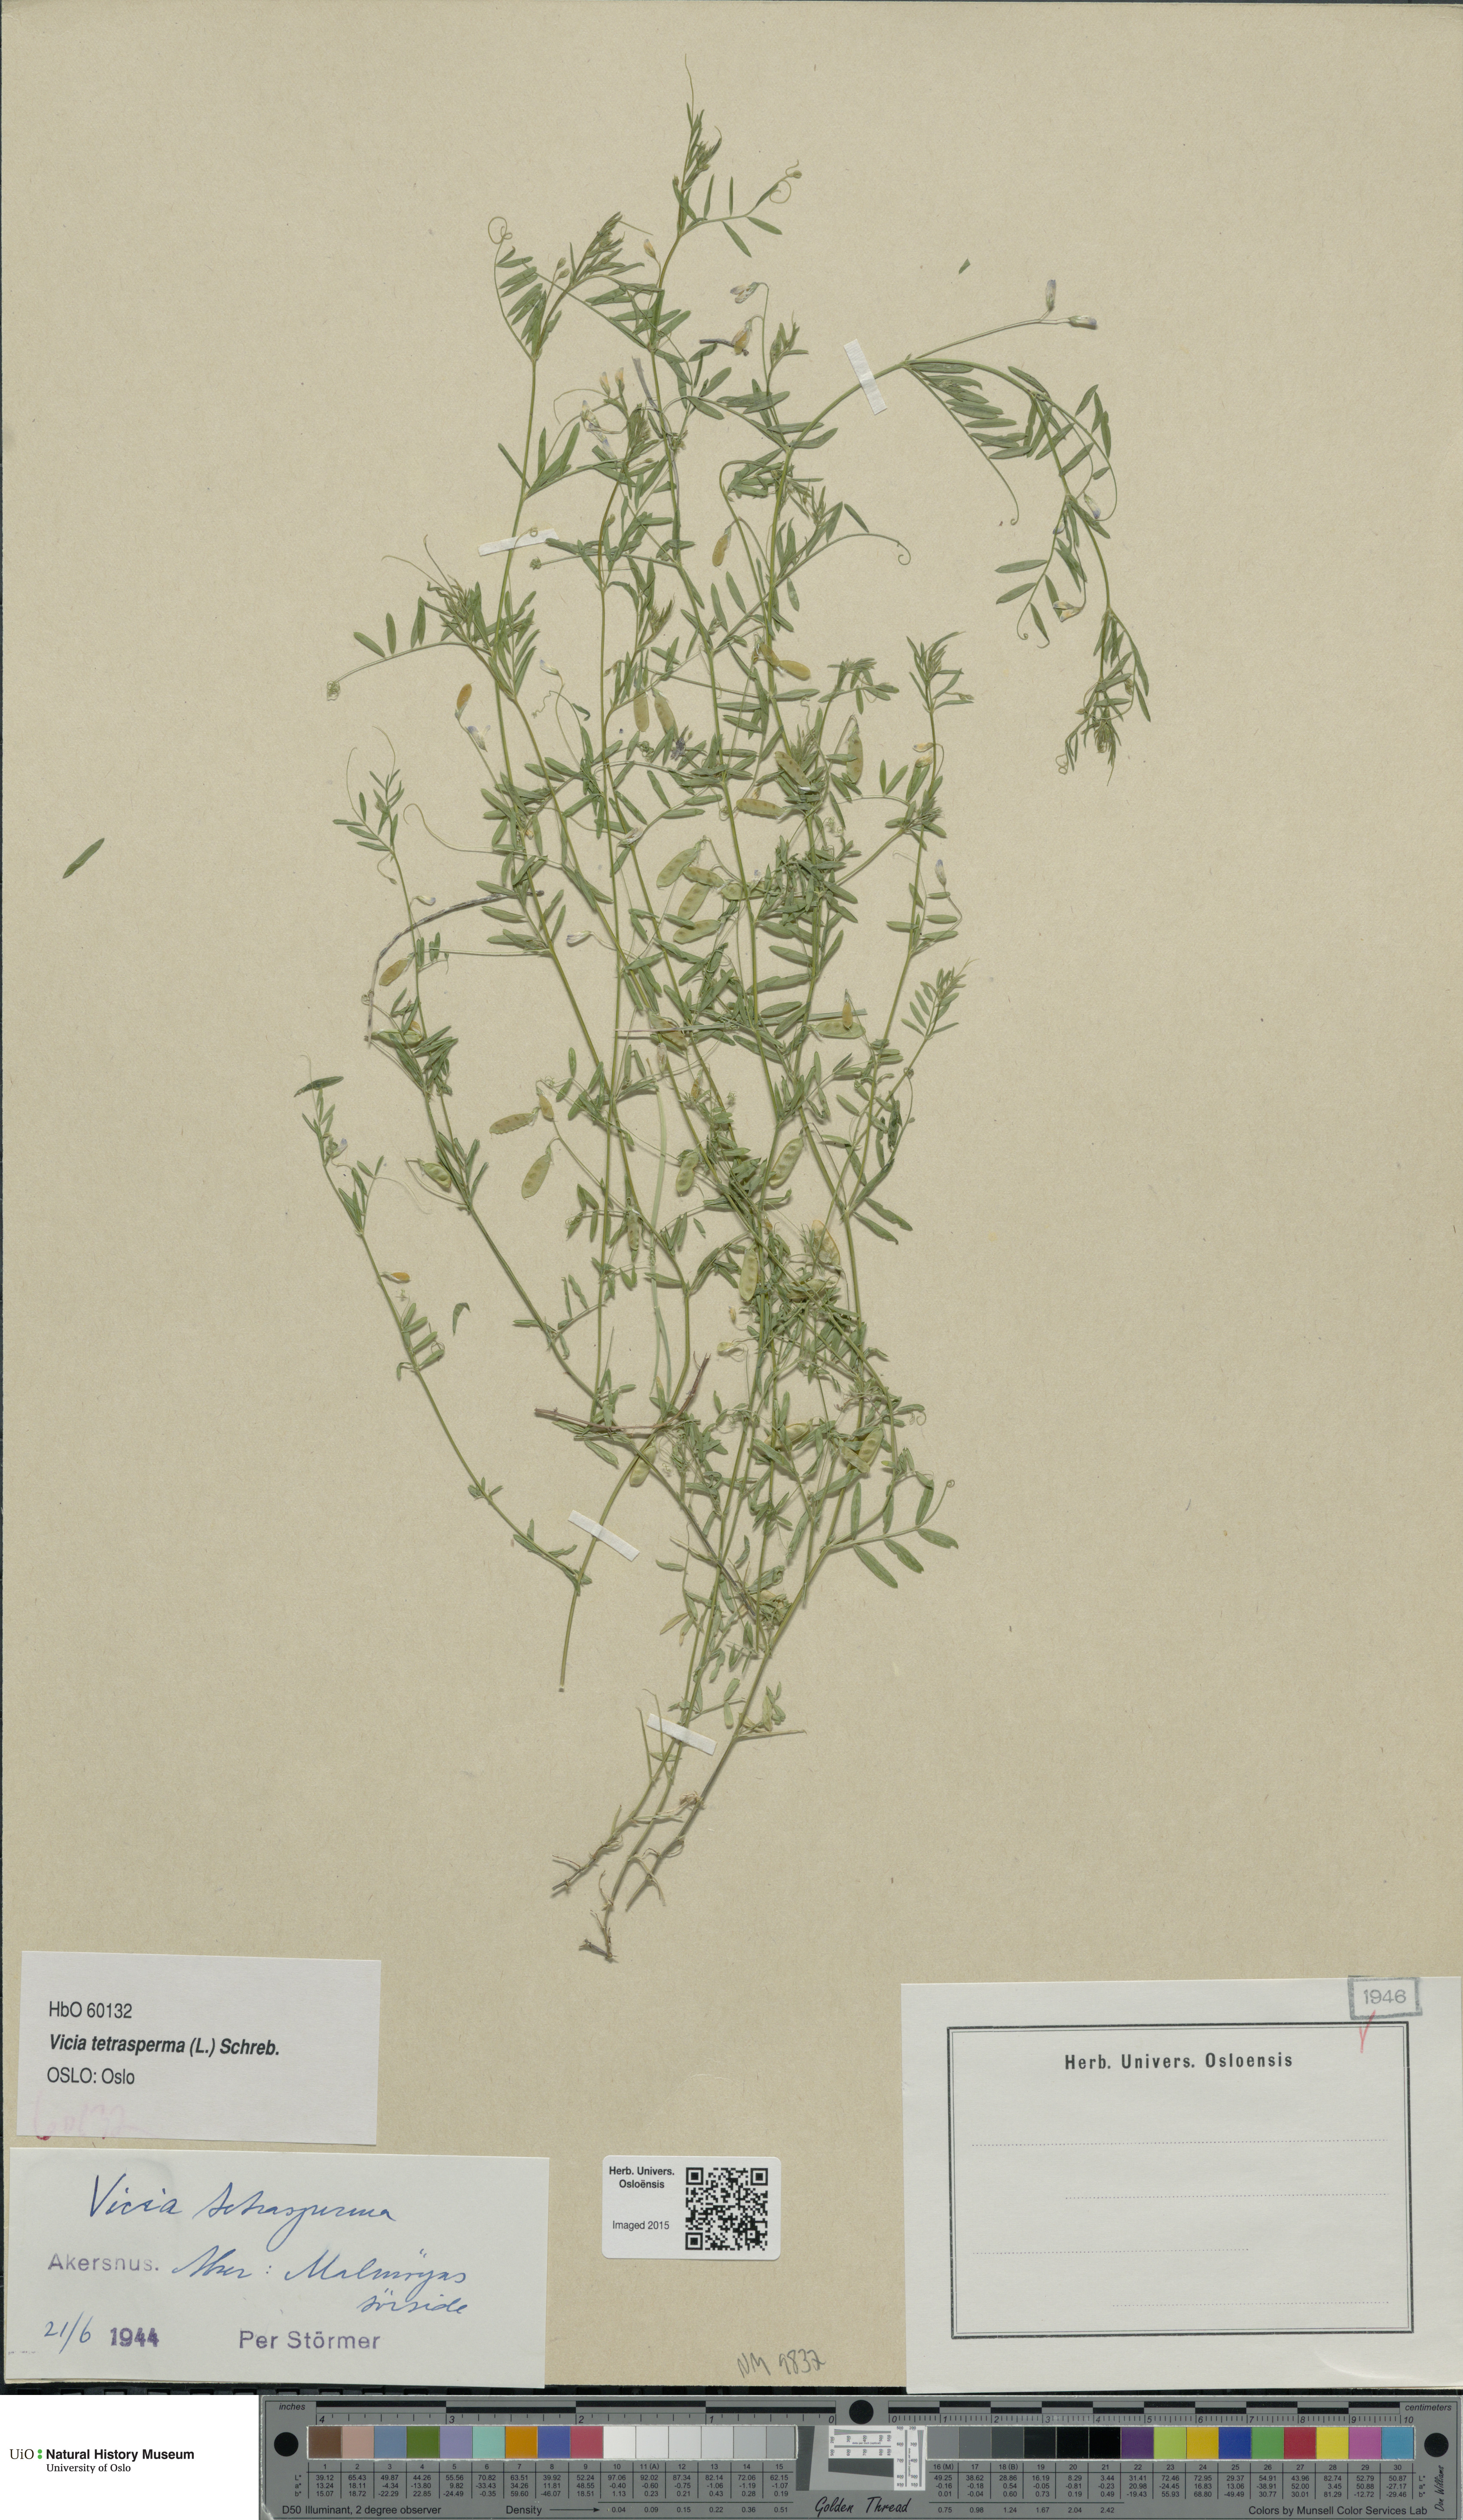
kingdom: Plantae
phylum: Tracheophyta
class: Magnoliopsida
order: Fabales
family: Fabaceae
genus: Vicia
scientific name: Vicia tetrasperma
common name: Smooth tare
